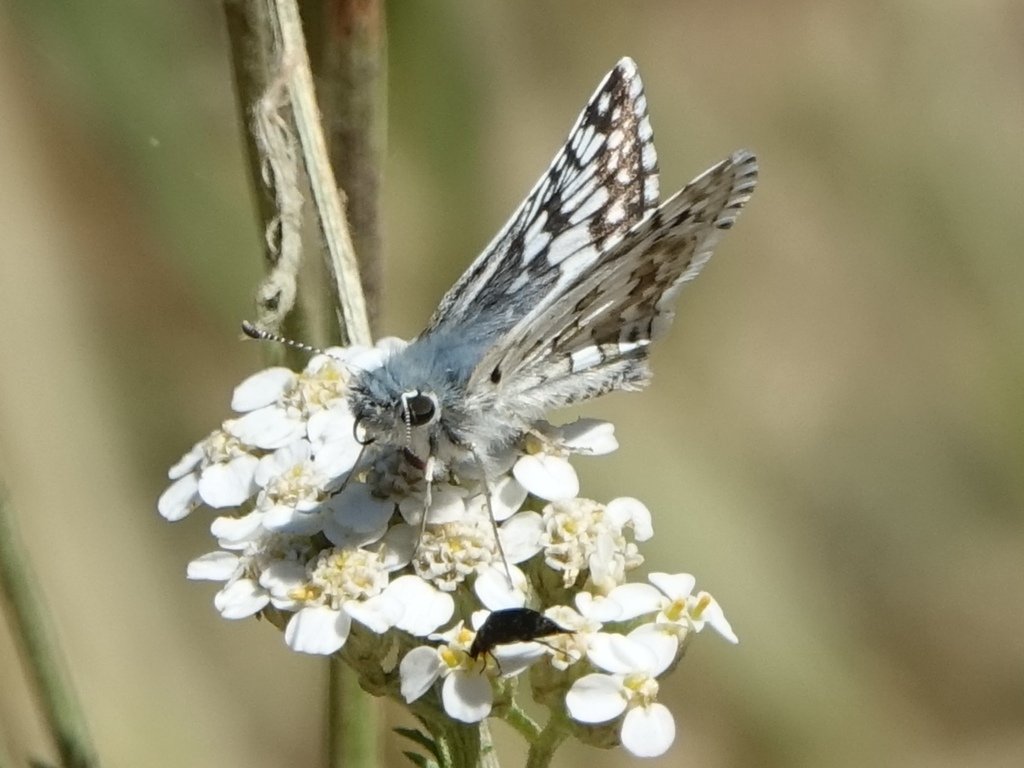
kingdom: Animalia
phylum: Arthropoda
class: Insecta
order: Lepidoptera
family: Hesperiidae
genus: Pyrgus
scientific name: Pyrgus communis
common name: Common Checkered-Skipper
